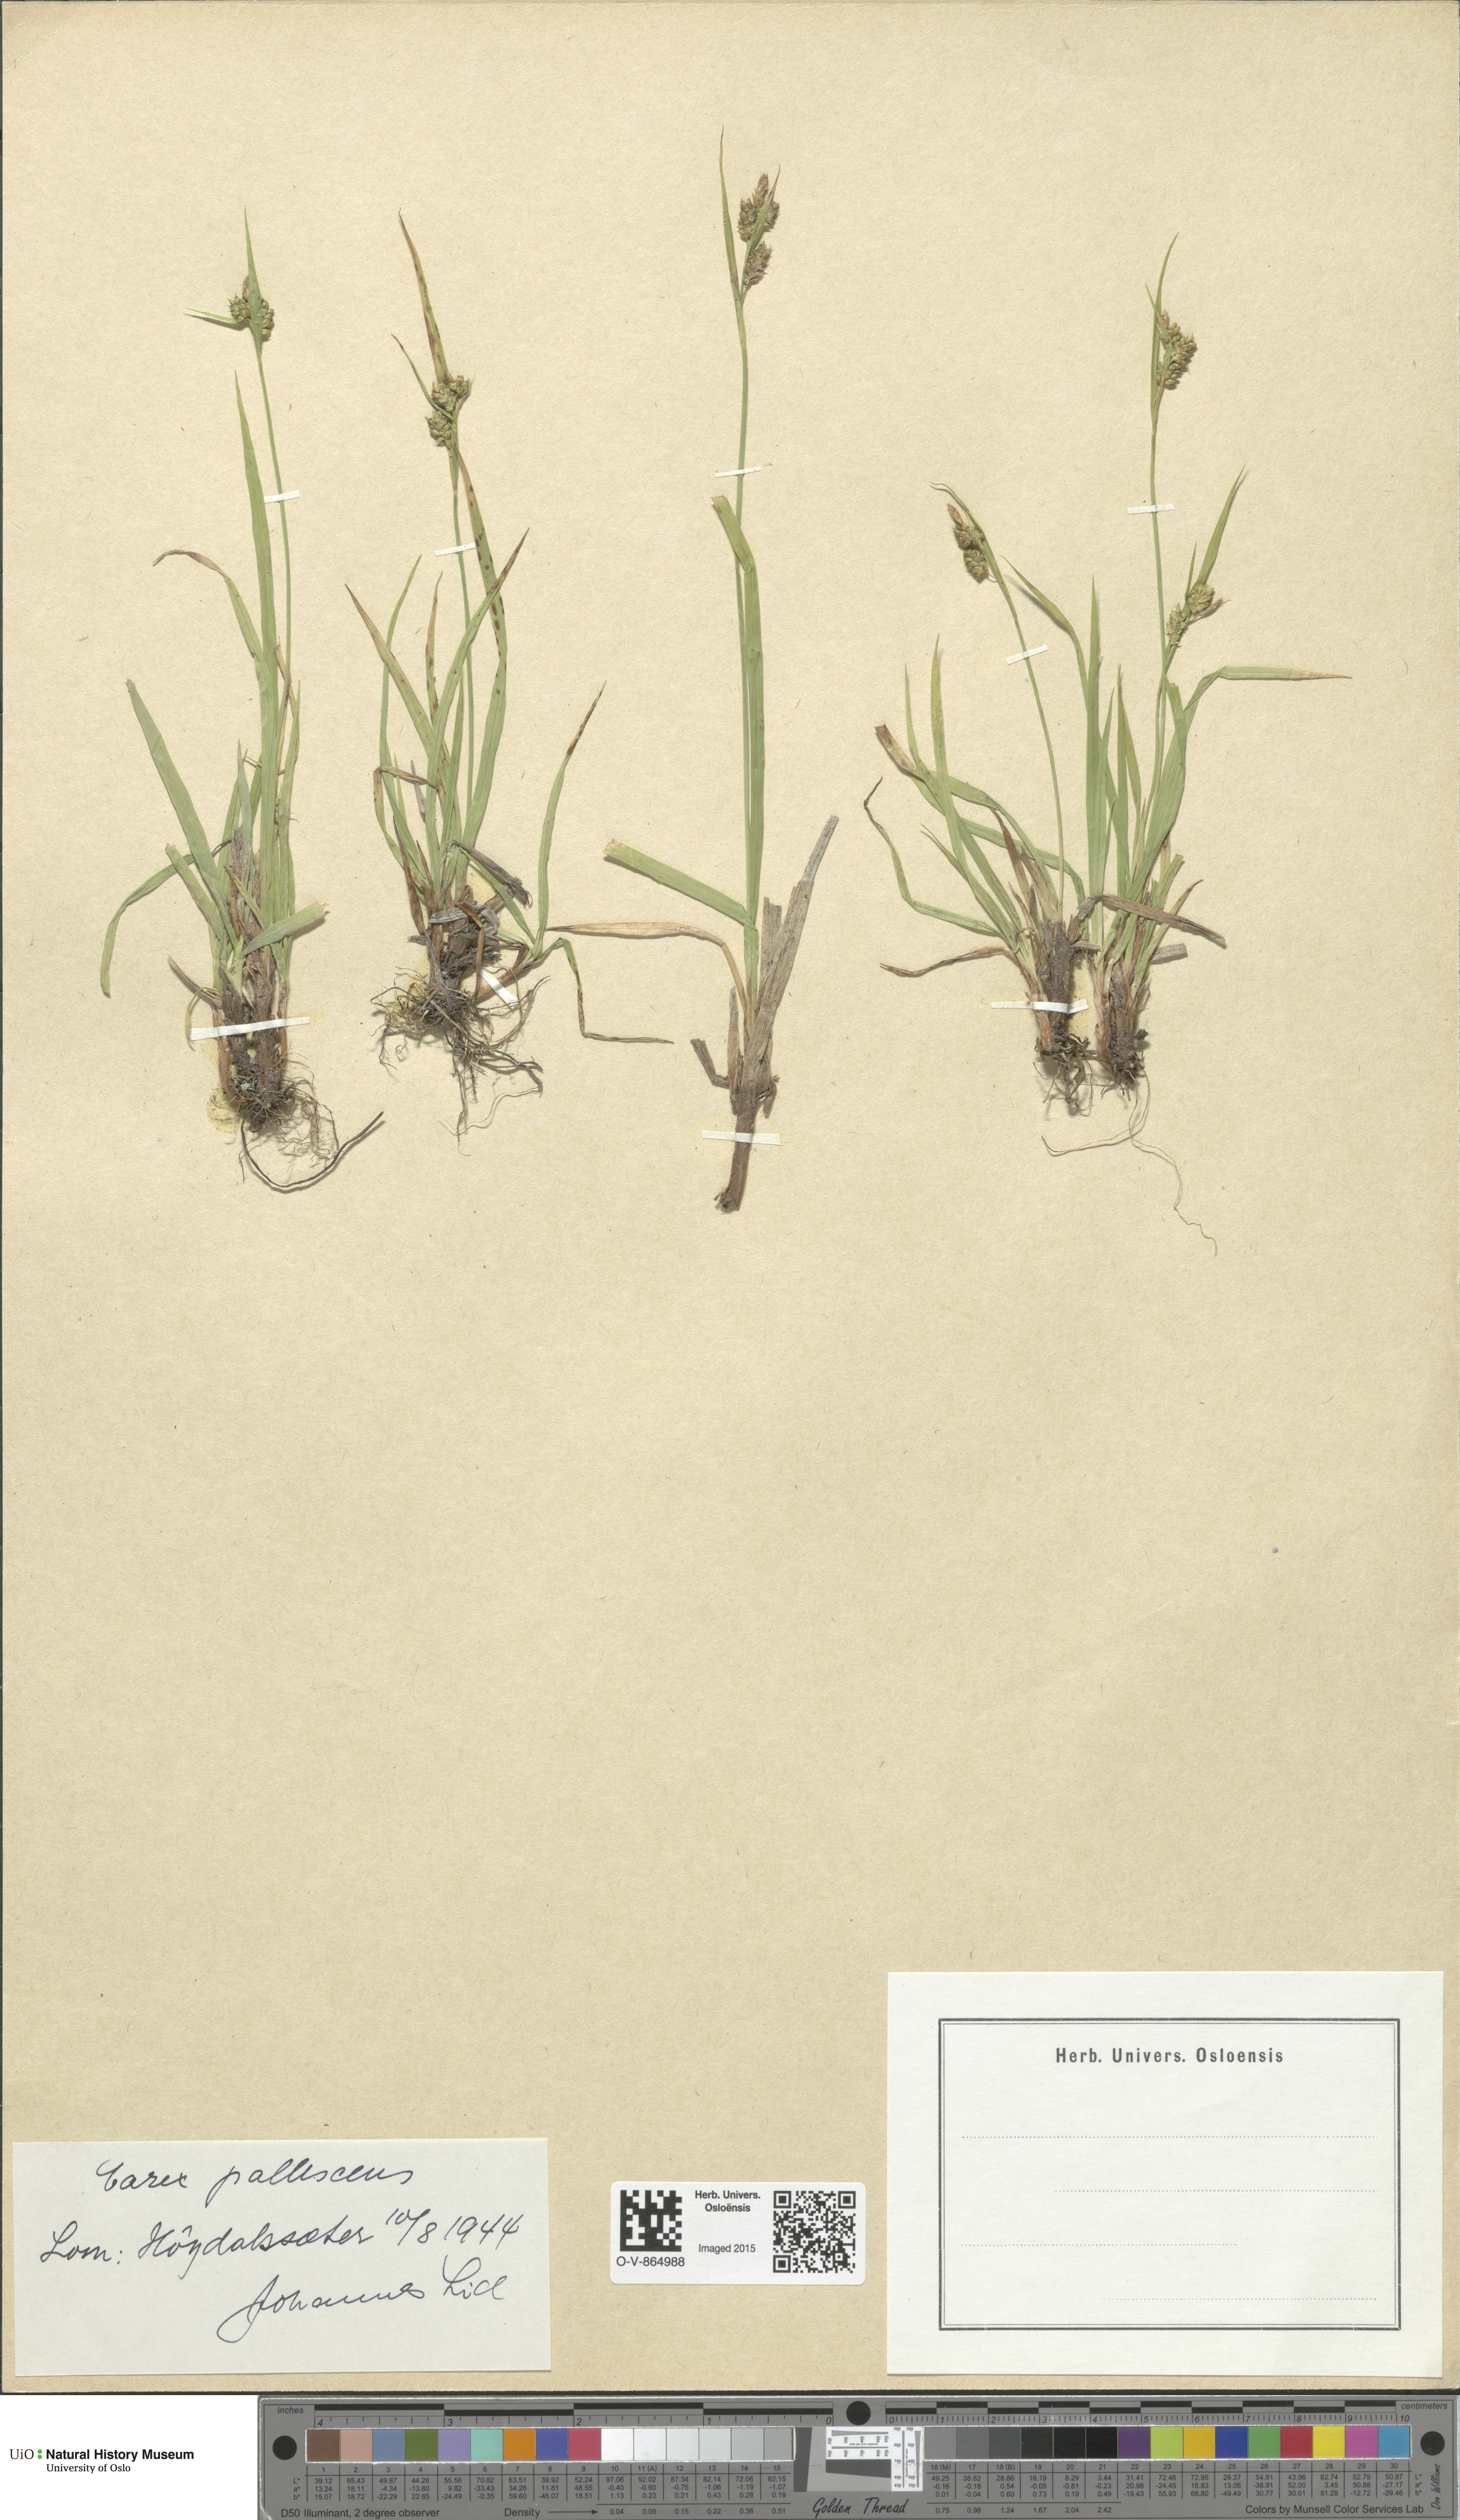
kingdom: Plantae
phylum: Tracheophyta
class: Liliopsida
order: Poales
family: Cyperaceae
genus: Carex
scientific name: Carex pallescens
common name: Pale sedge
